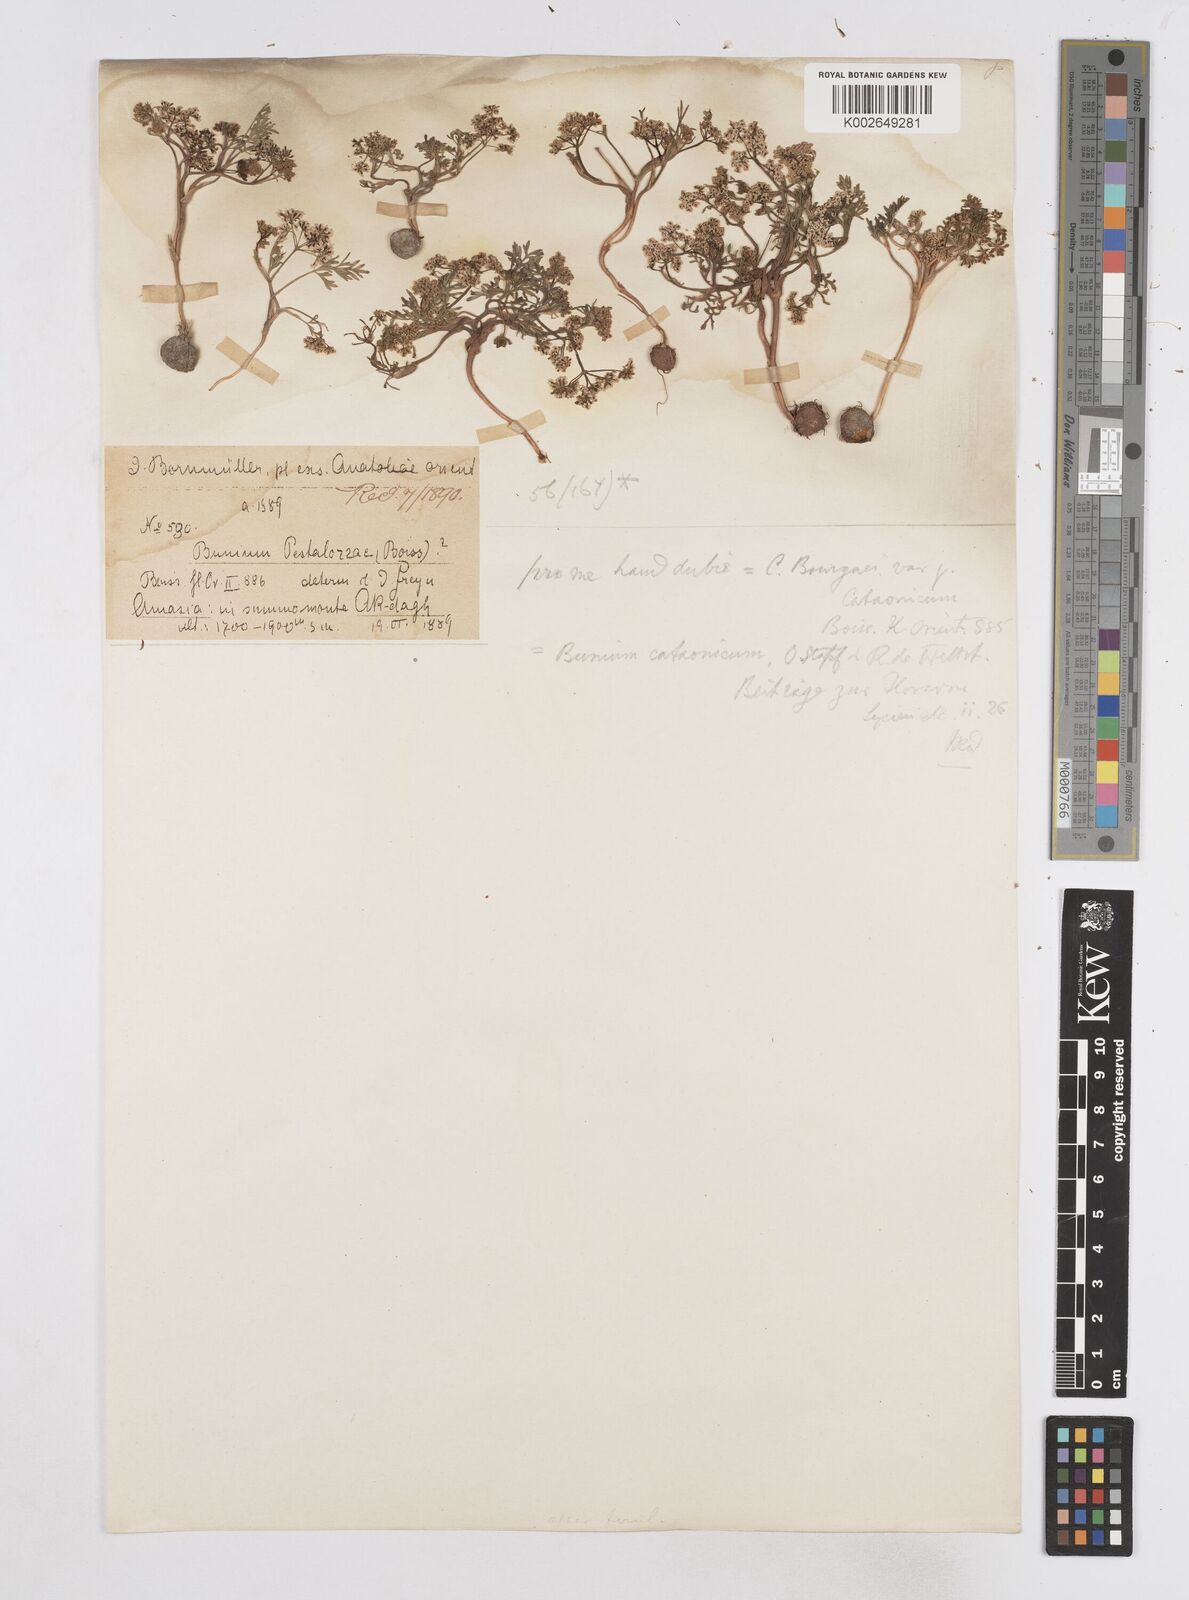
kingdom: Plantae
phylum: Tracheophyta
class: Magnoliopsida
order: Apiales
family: Apiaceae
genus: Bunium
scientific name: Bunium bourgaei
